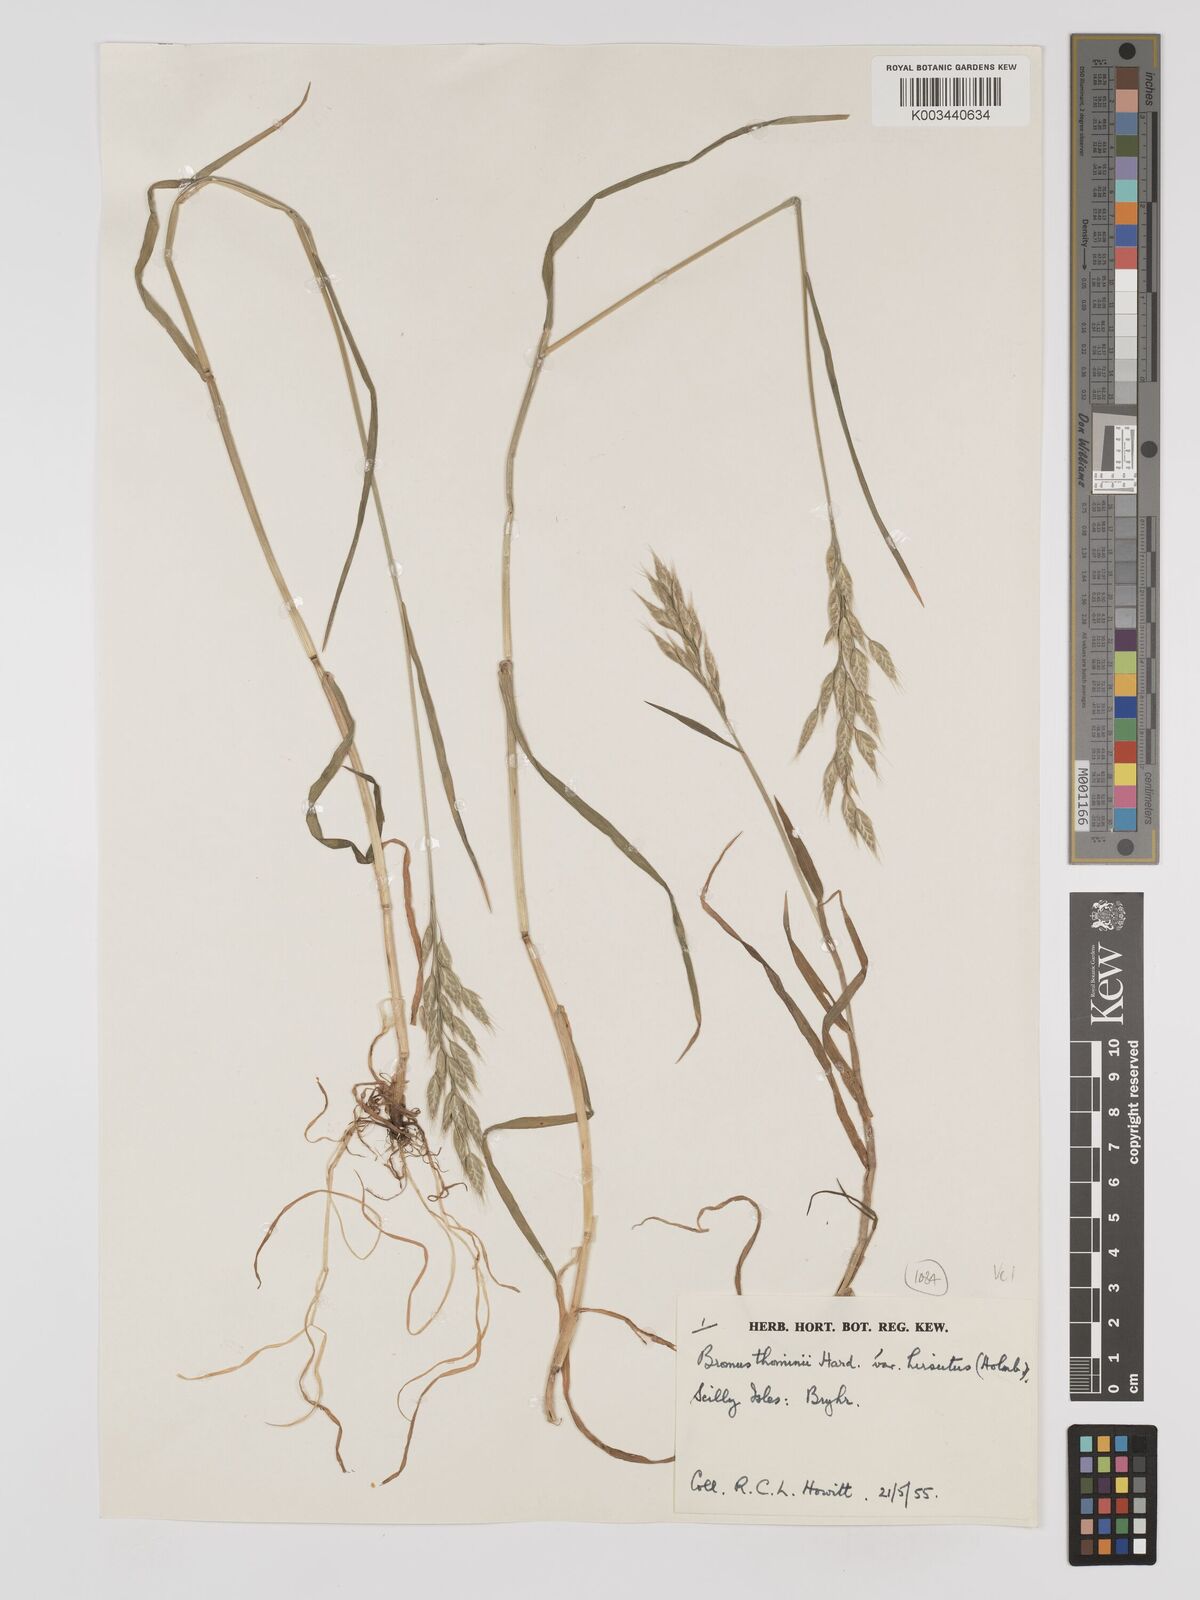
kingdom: Plantae
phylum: Tracheophyta
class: Liliopsida
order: Poales
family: Poaceae
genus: Bromus
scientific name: Bromus hordeaceus
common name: Soft brome
